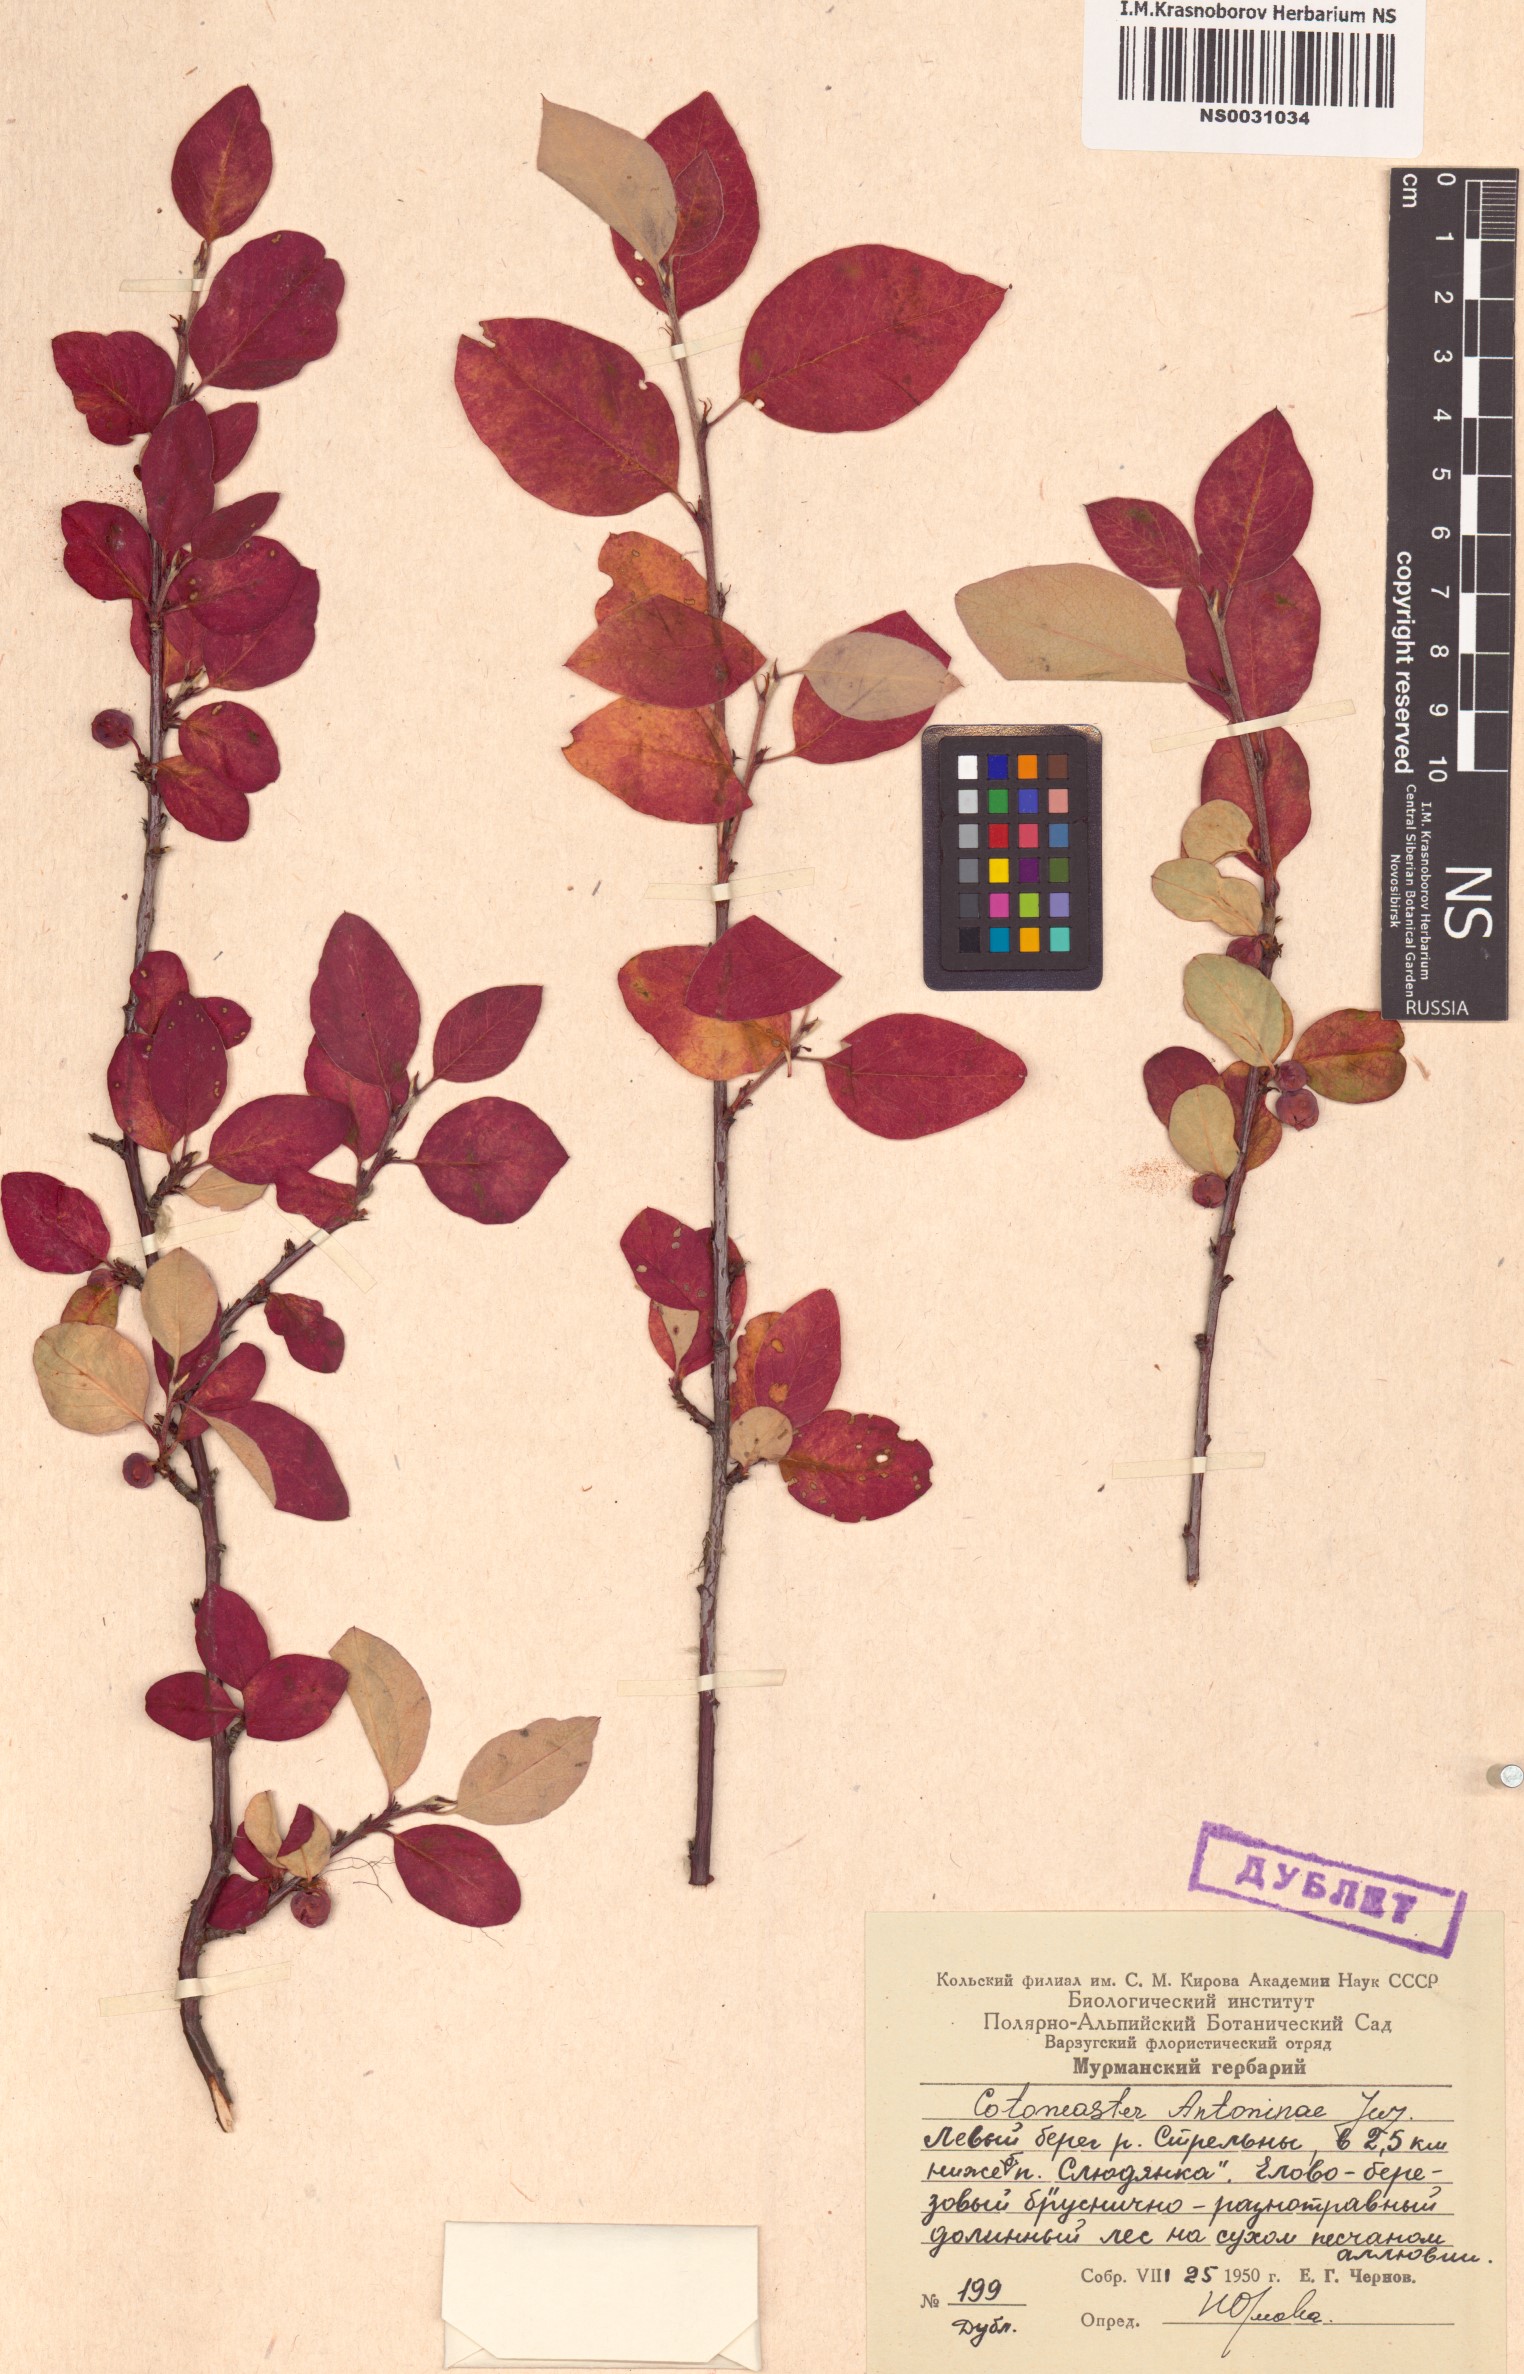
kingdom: Plantae
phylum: Tracheophyta
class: Magnoliopsida
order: Rosales
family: Rosaceae
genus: Cotoneaster
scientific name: Cotoneaster laxiflorus
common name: Black-fruit cotoneaster
